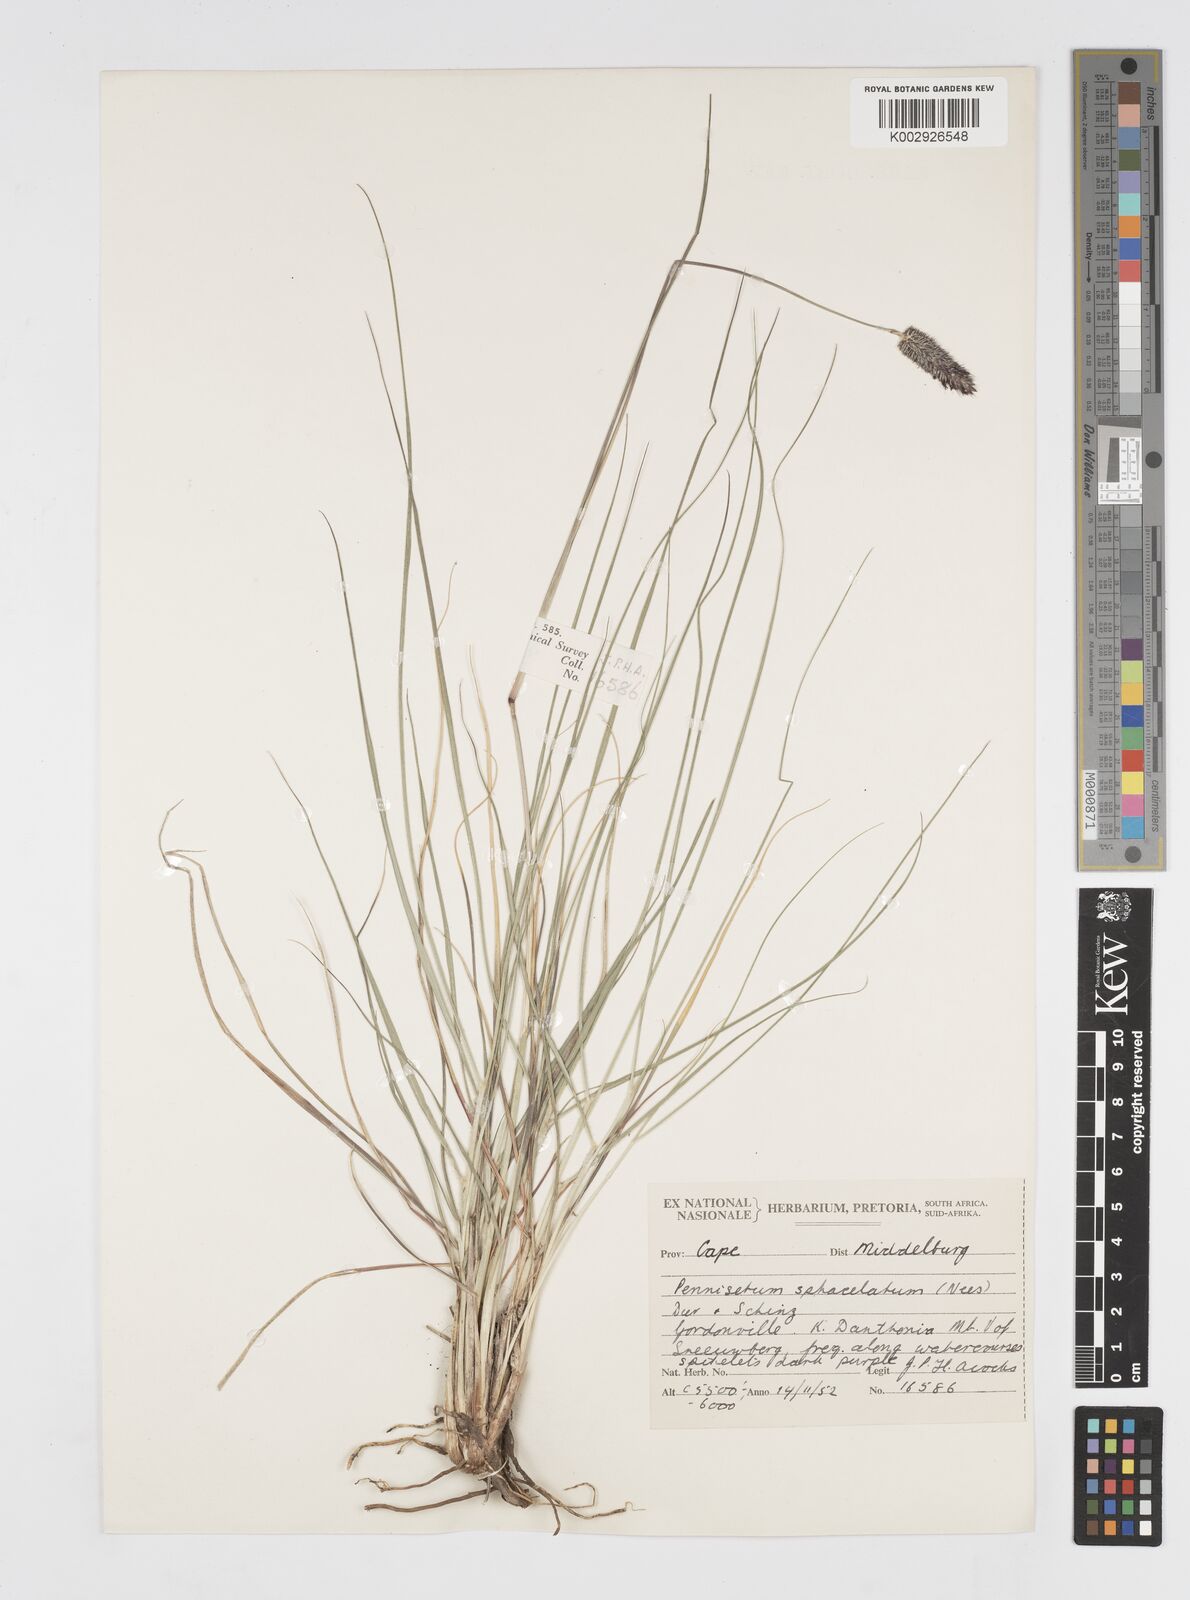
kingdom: Plantae
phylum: Tracheophyta
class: Liliopsida
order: Poales
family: Poaceae
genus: Cenchrus
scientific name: Cenchrus sphacelatus
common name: Bulgras
